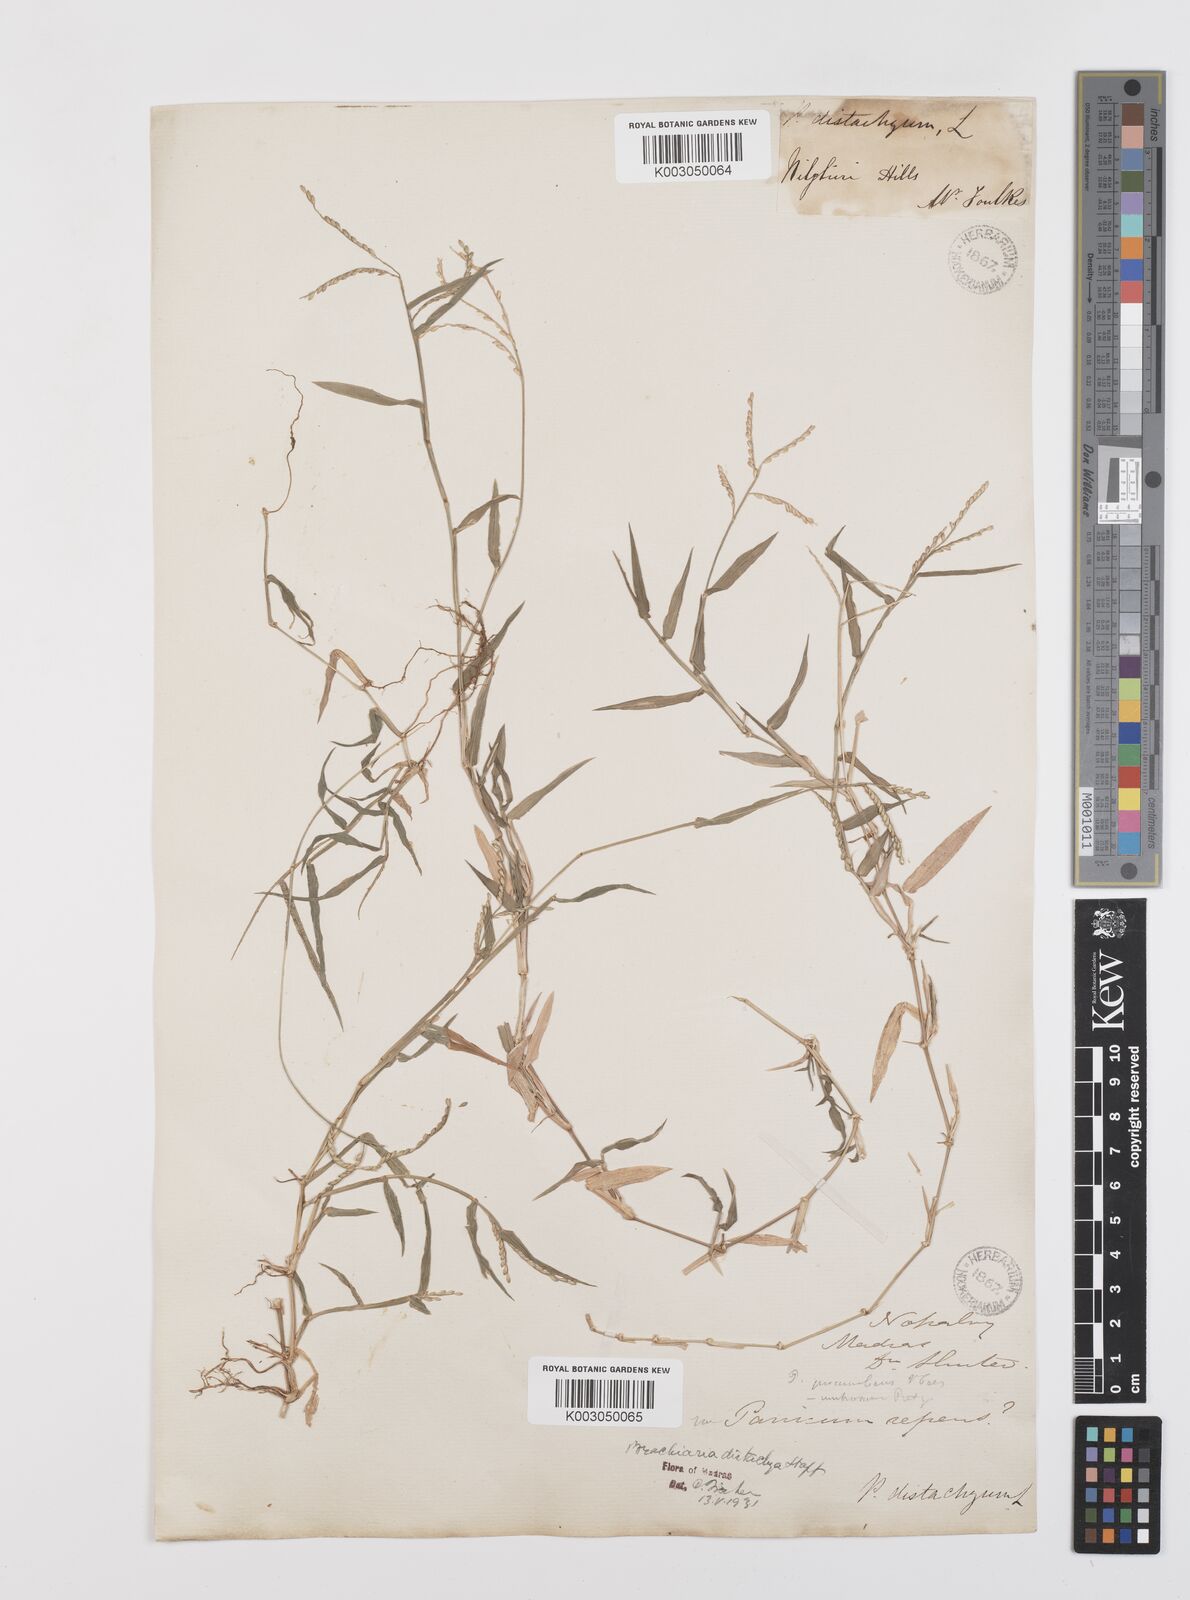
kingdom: Plantae
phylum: Tracheophyta
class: Liliopsida
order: Poales
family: Poaceae
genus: Urochloa
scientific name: Urochloa distachyos
